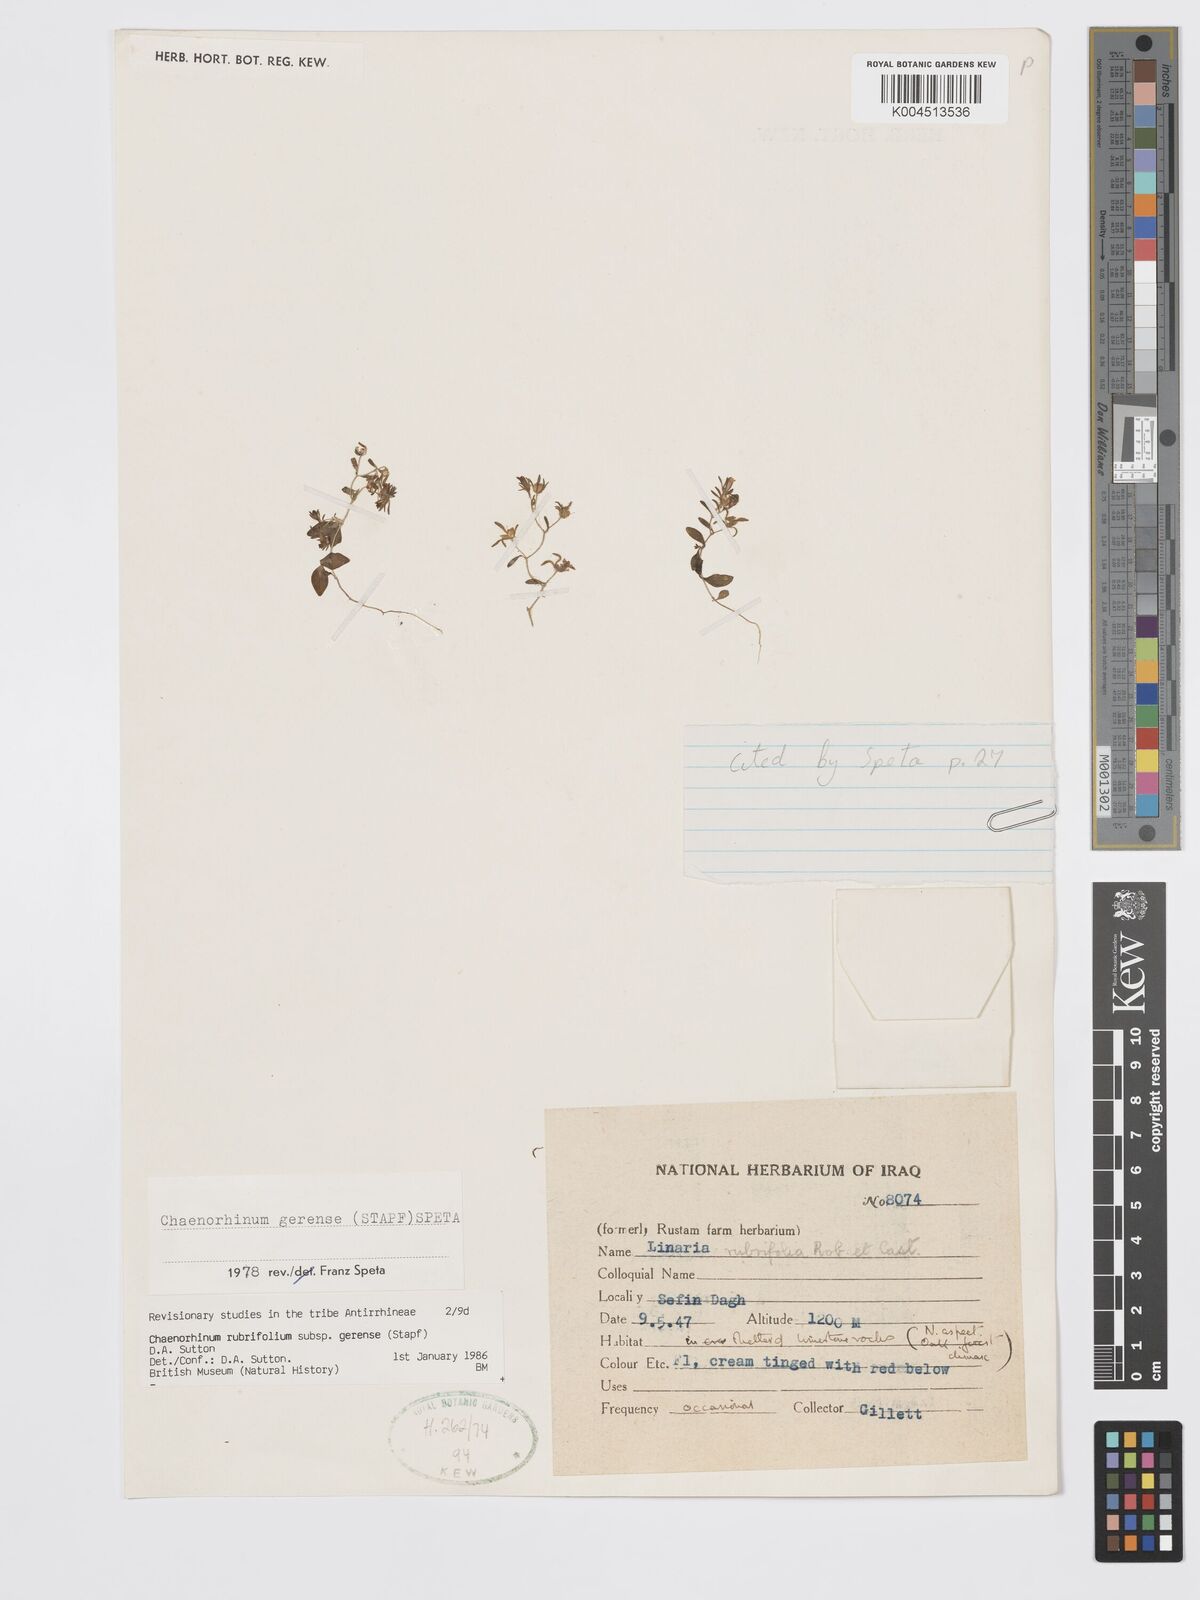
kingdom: Plantae
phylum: Tracheophyta
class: Magnoliopsida
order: Lamiales
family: Plantaginaceae
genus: Chaenorhinum
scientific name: Chaenorhinum rubrifolium
